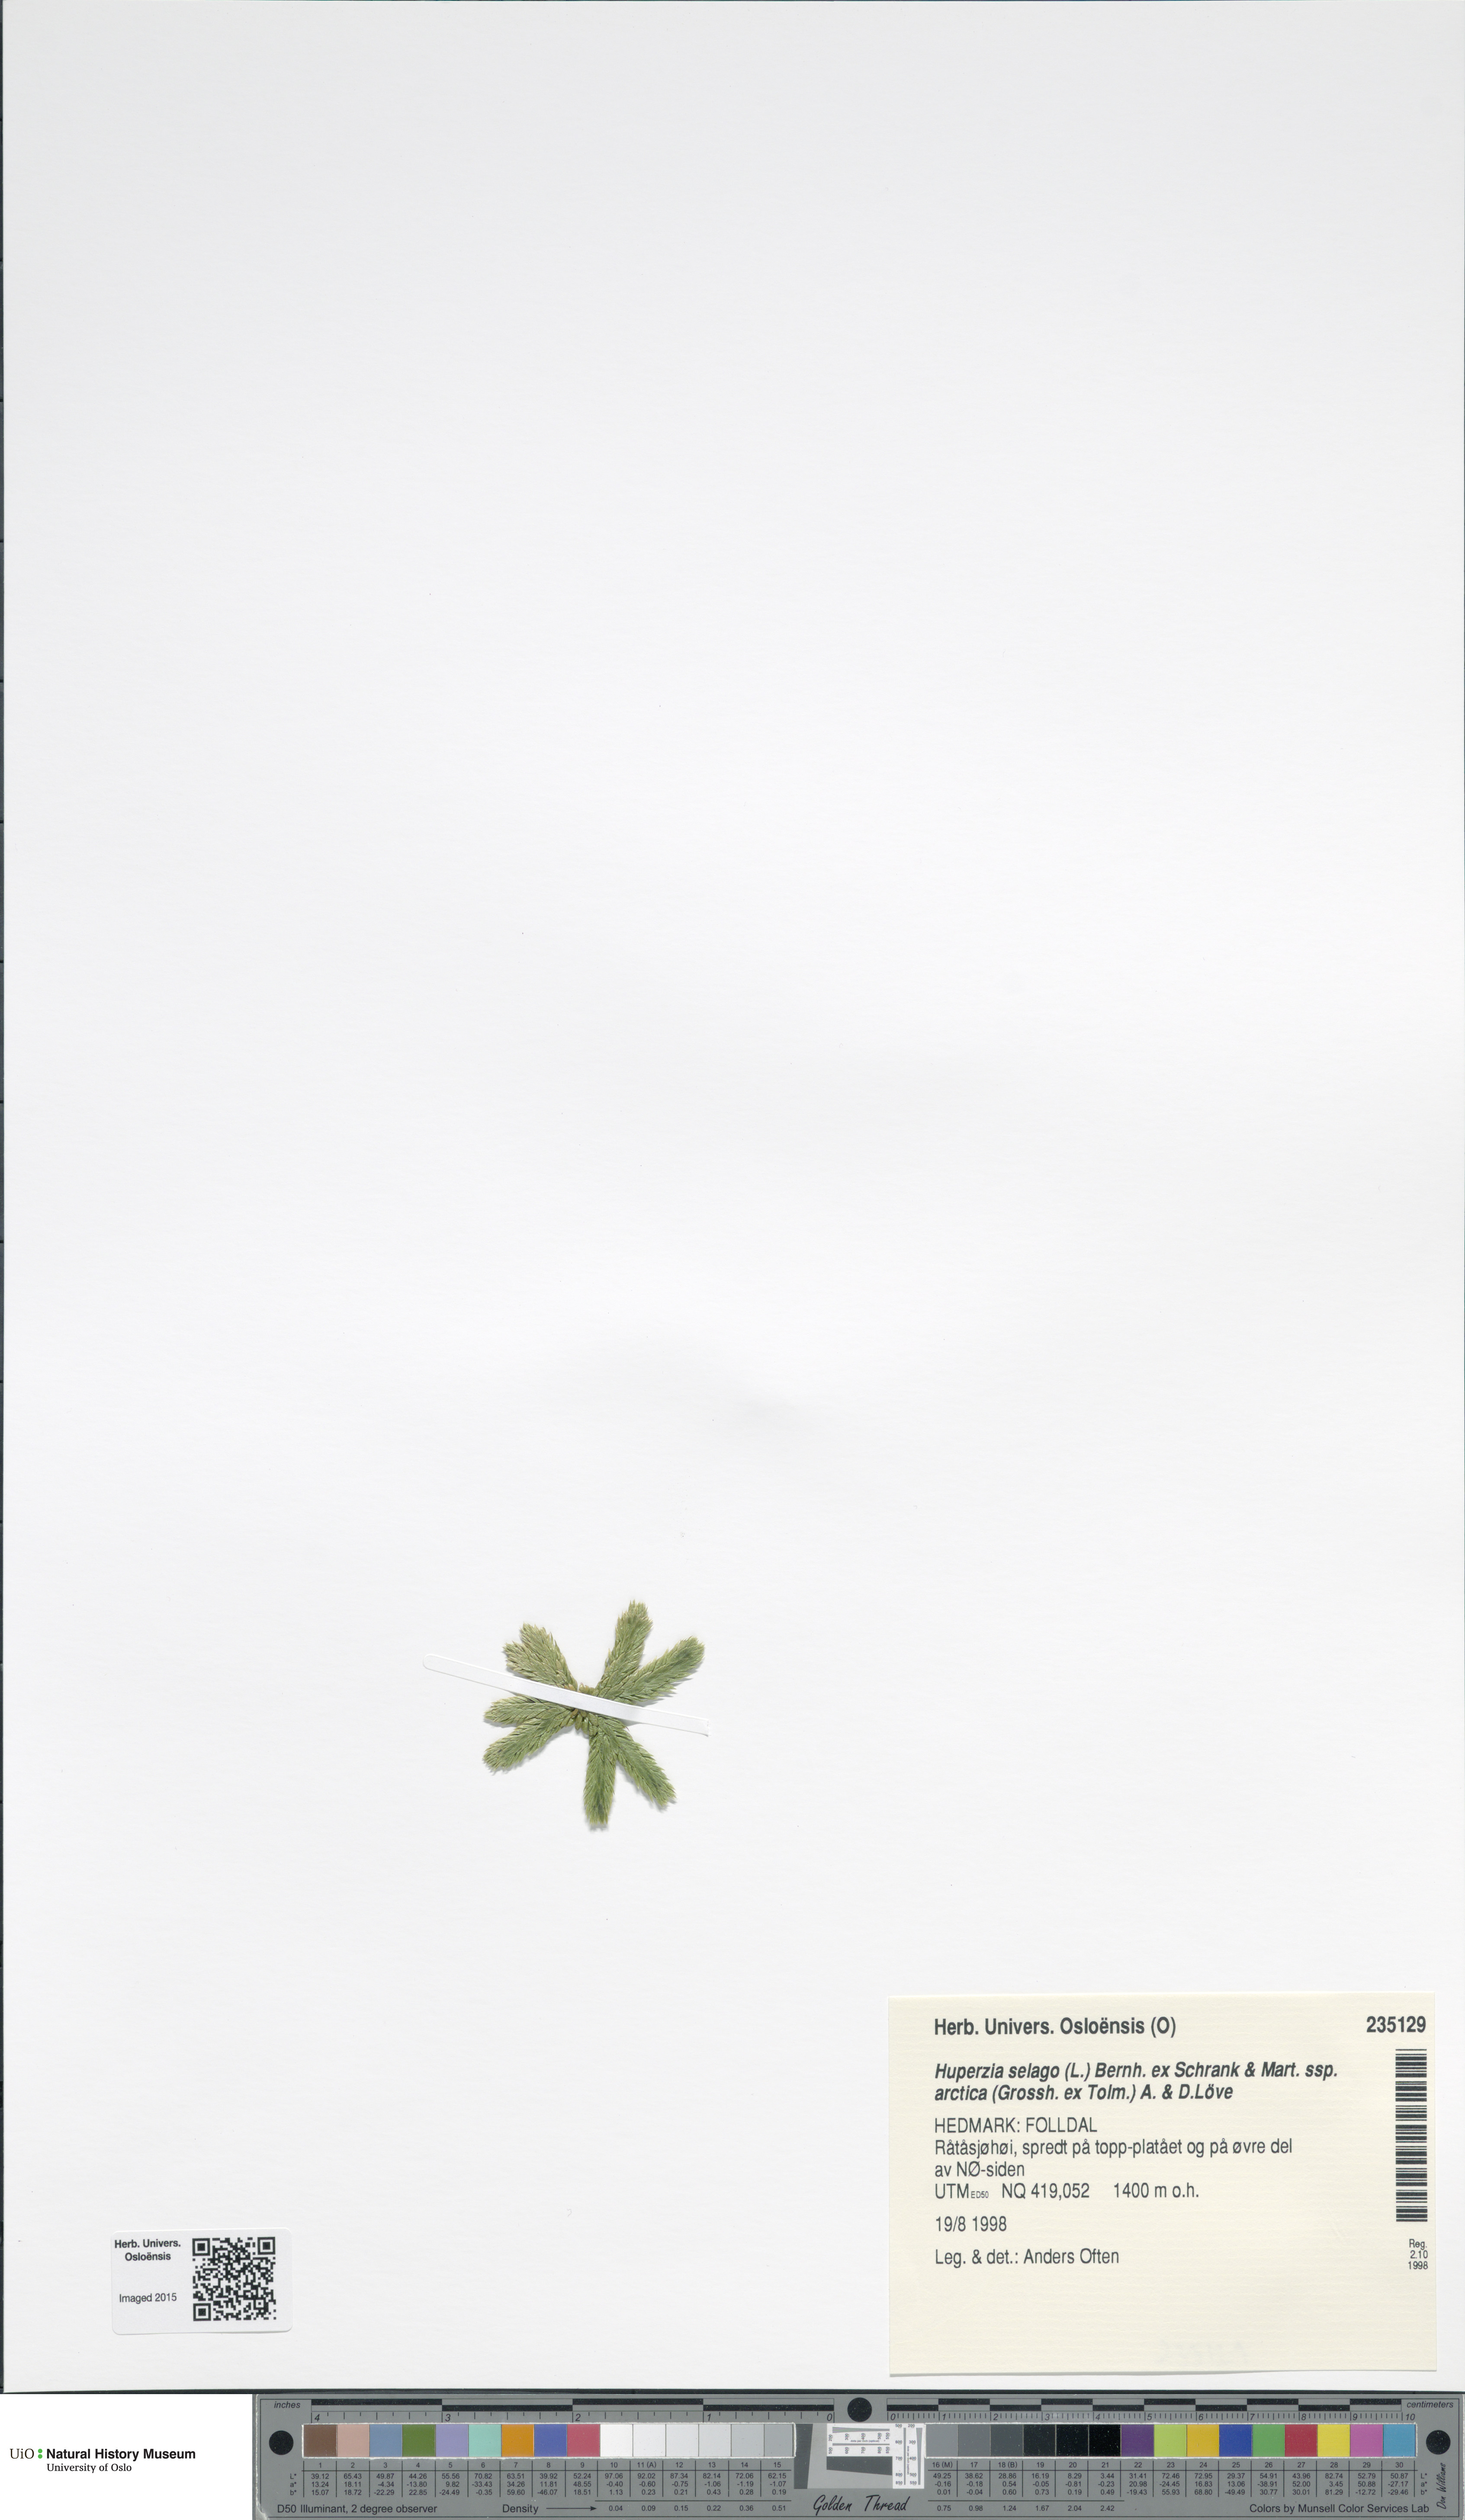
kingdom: Plantae
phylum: Tracheophyta
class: Lycopodiopsida
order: Lycopodiales
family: Lycopodiaceae
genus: Huperzia
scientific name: Huperzia selago
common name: Northern firmoss
